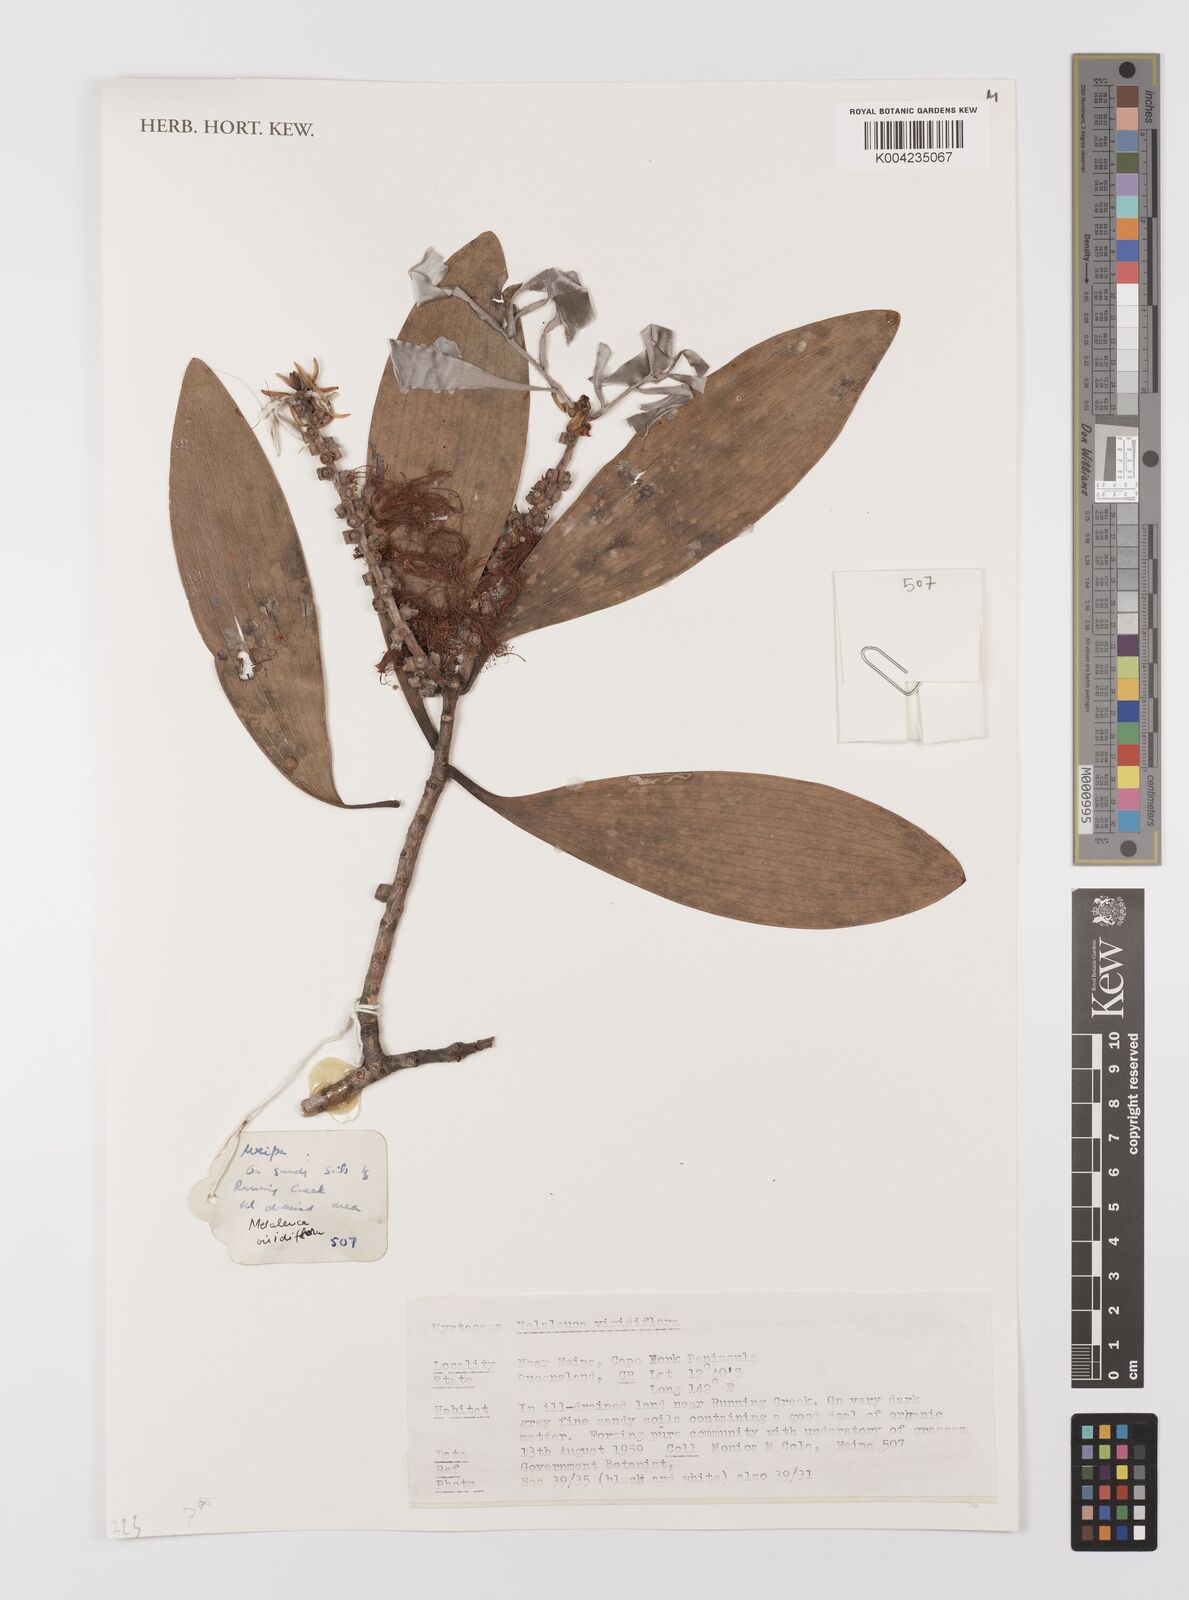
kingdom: Plantae
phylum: Tracheophyta
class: Magnoliopsida
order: Myrtales
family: Myrtaceae
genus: Melaleuca
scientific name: Melaleuca viridiflora
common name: Brown-leaved paperbark
